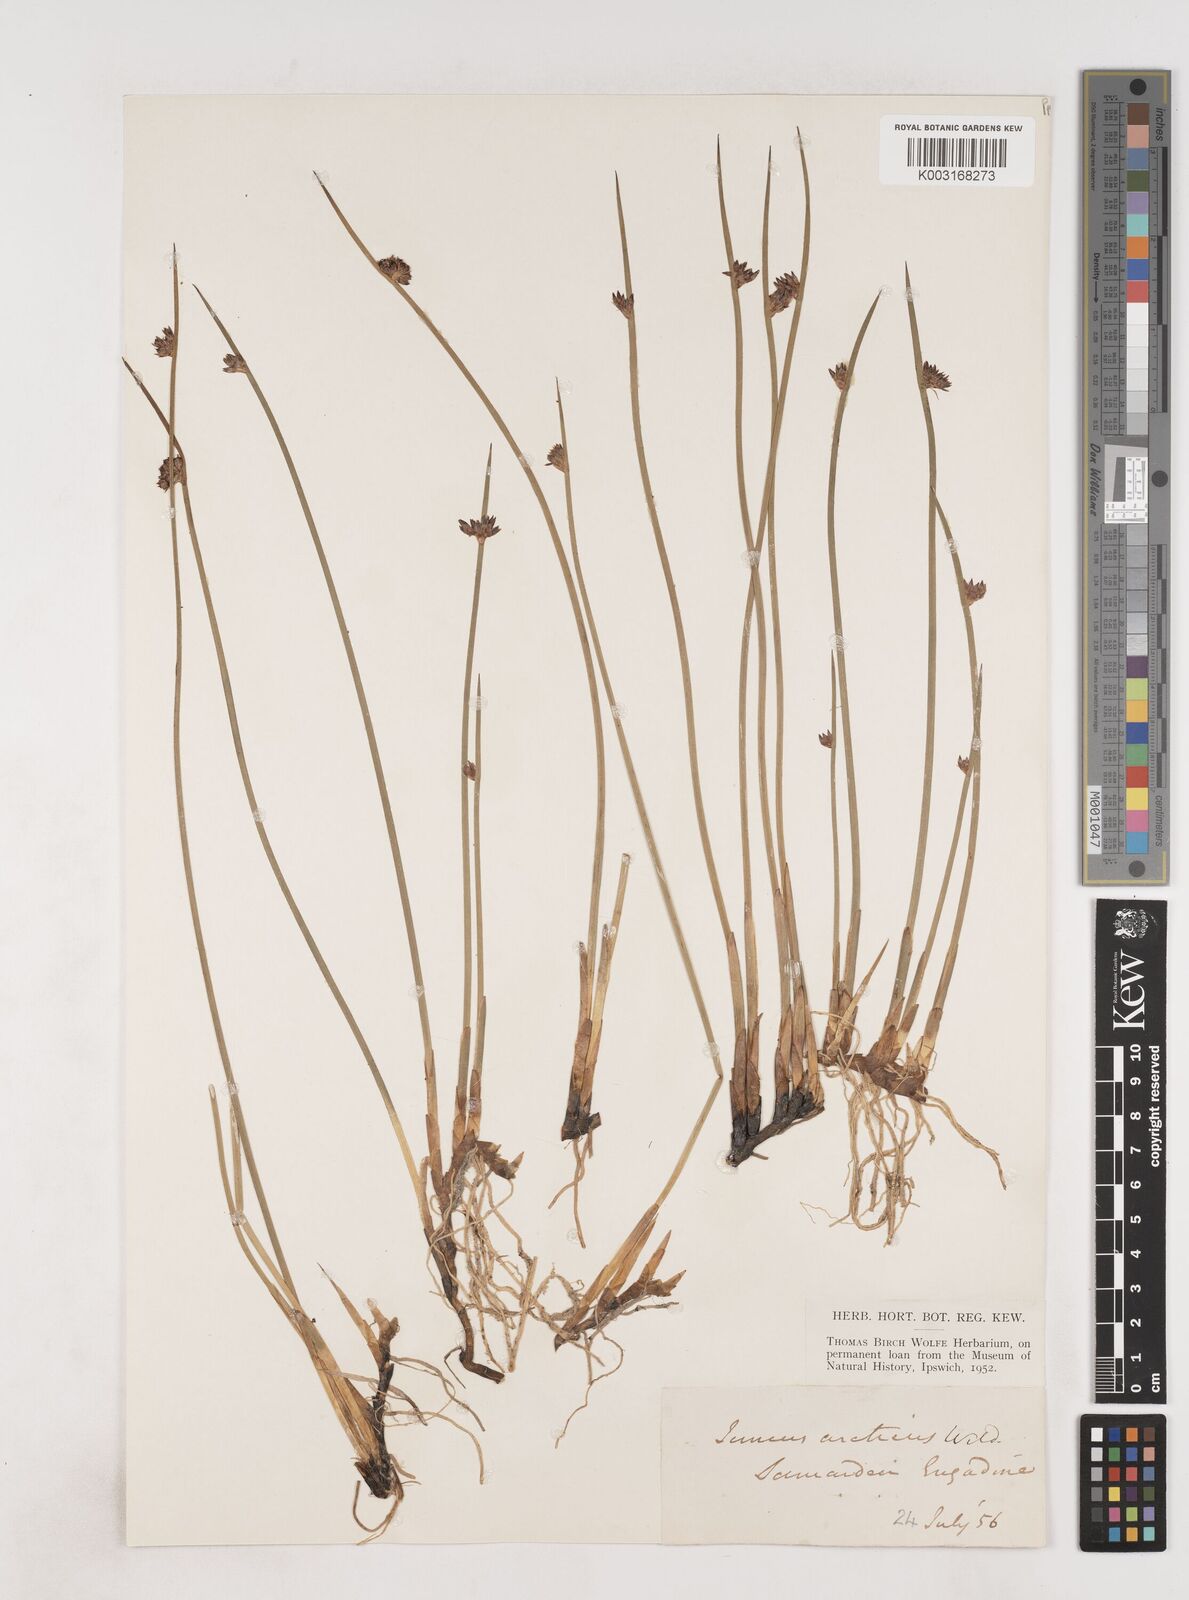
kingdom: Plantae
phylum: Tracheophyta
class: Liliopsida
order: Poales
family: Juncaceae
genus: Juncus
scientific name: Juncus arcticus
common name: Arctic rush
